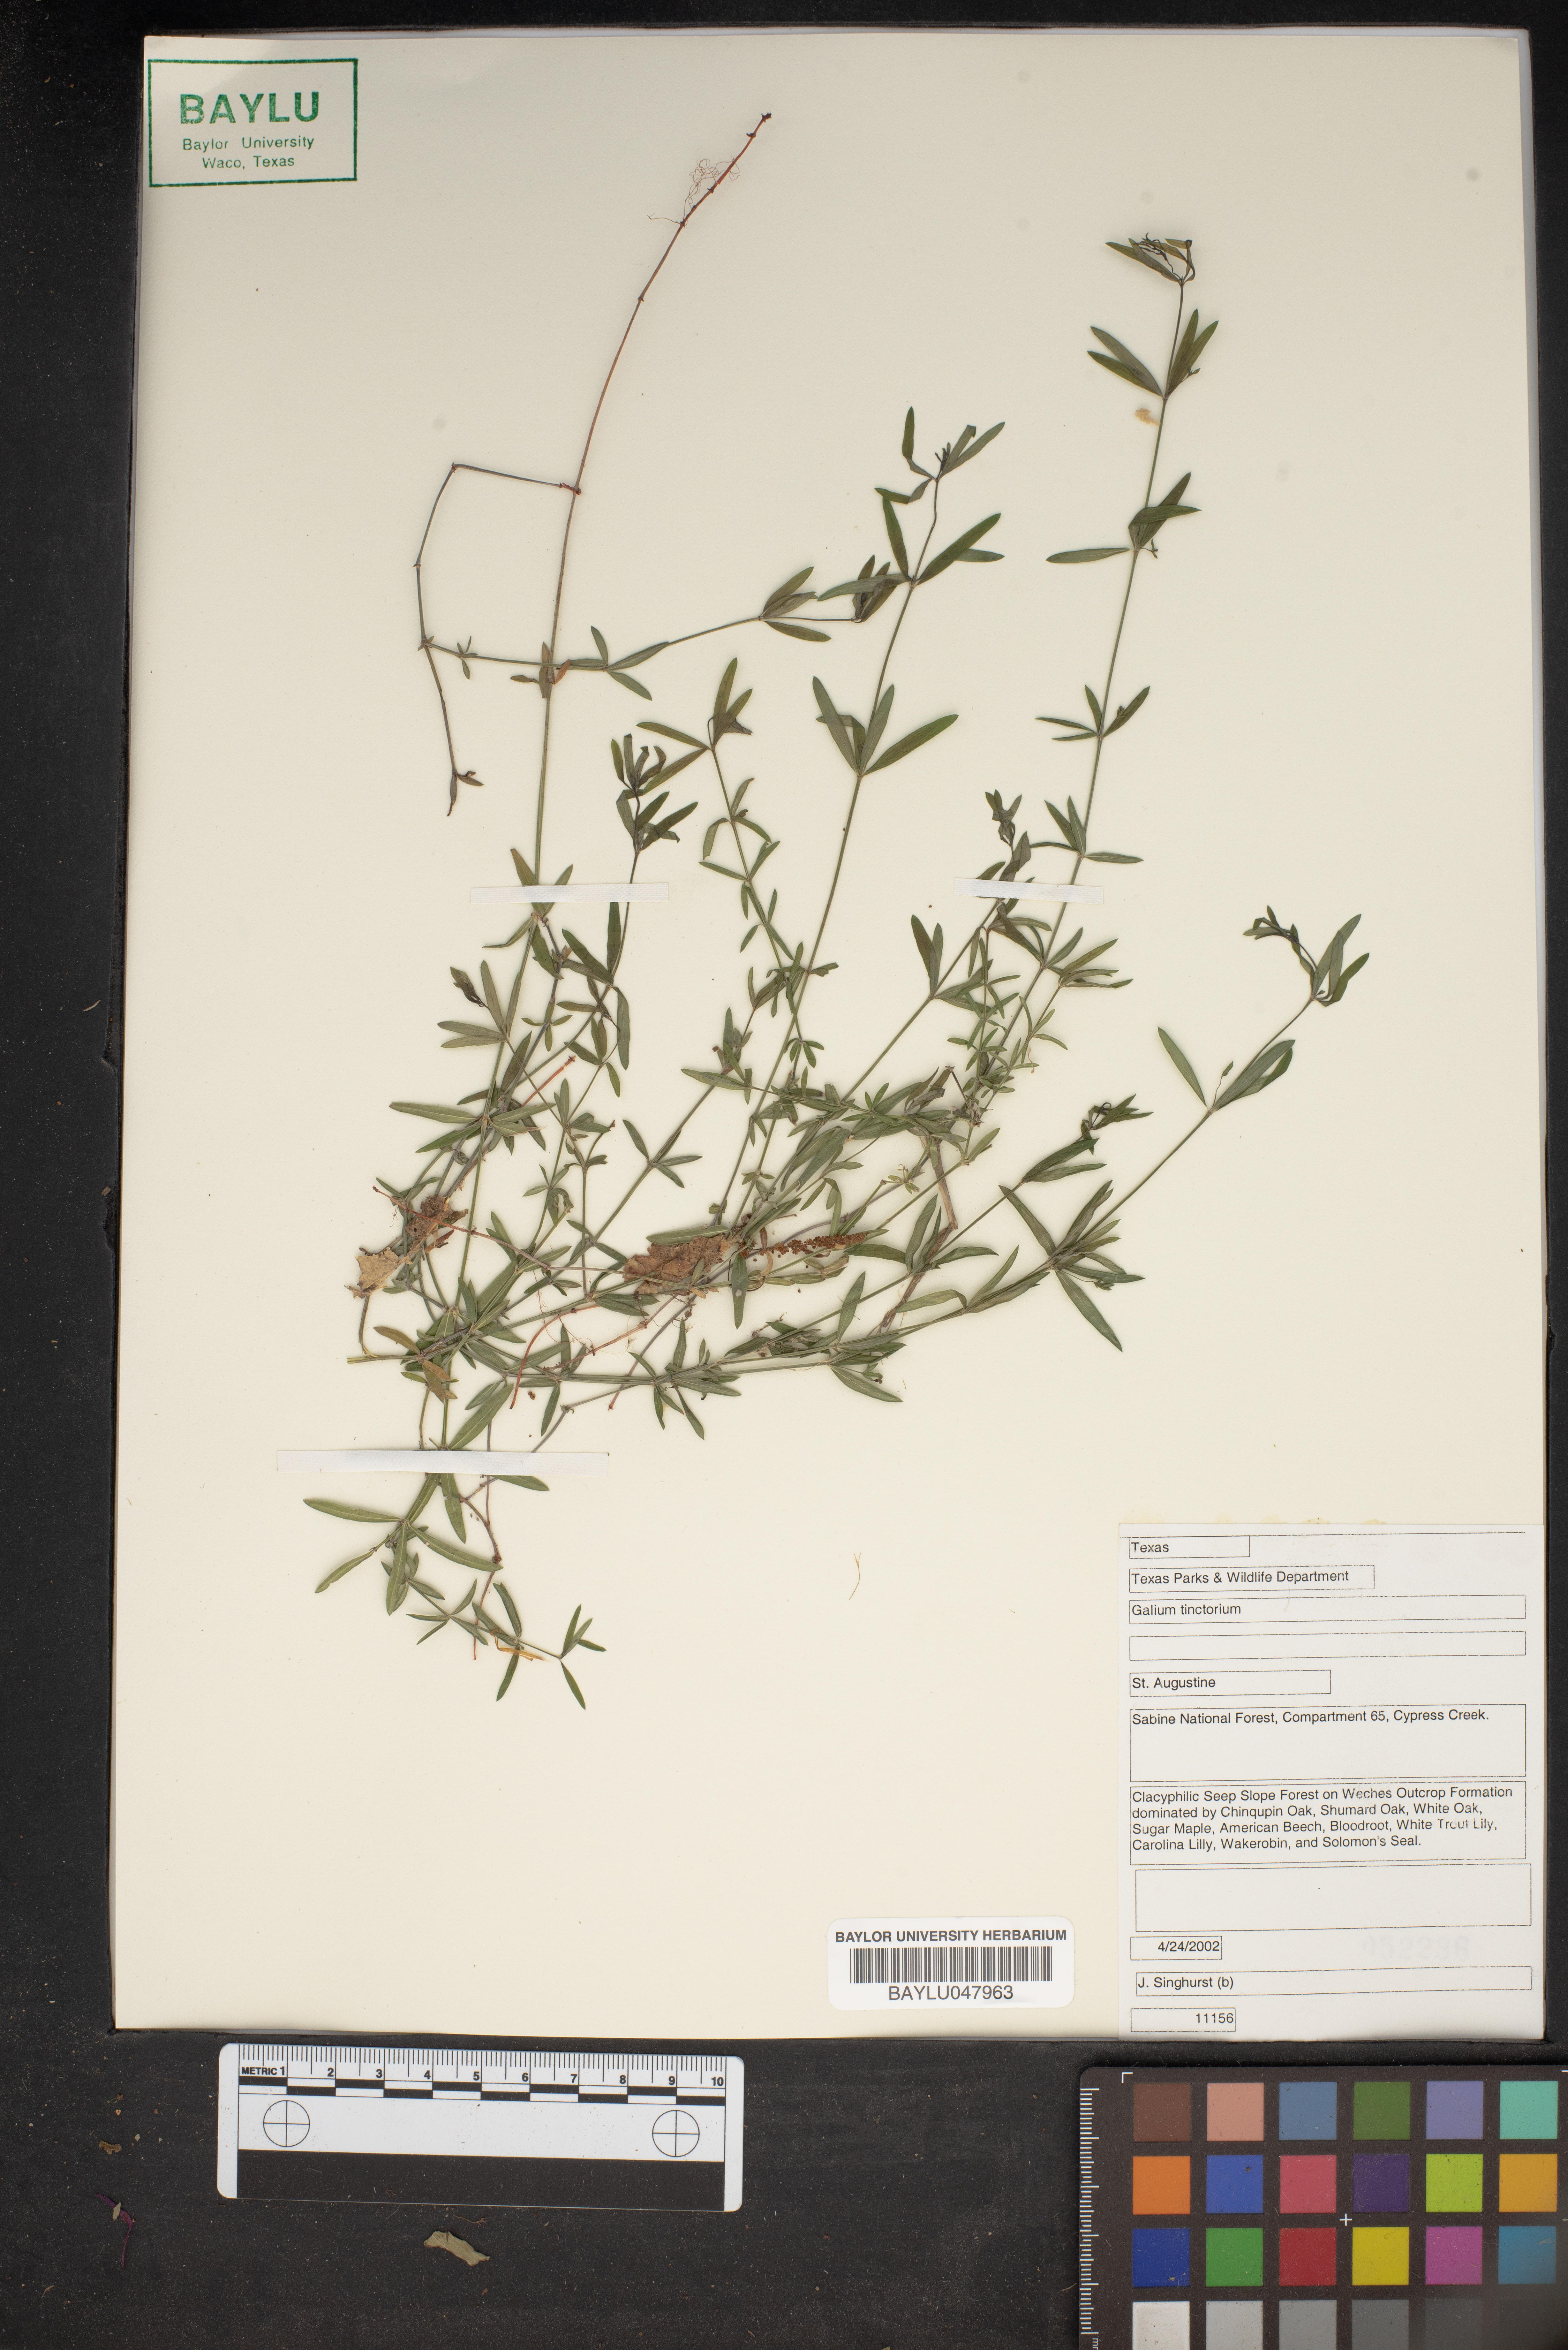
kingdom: Plantae
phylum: Tracheophyta
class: Magnoliopsida
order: Gentianales
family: Rubiaceae
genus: Asperula
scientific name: Asperula tinctoria
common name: Dyer's woodruff
